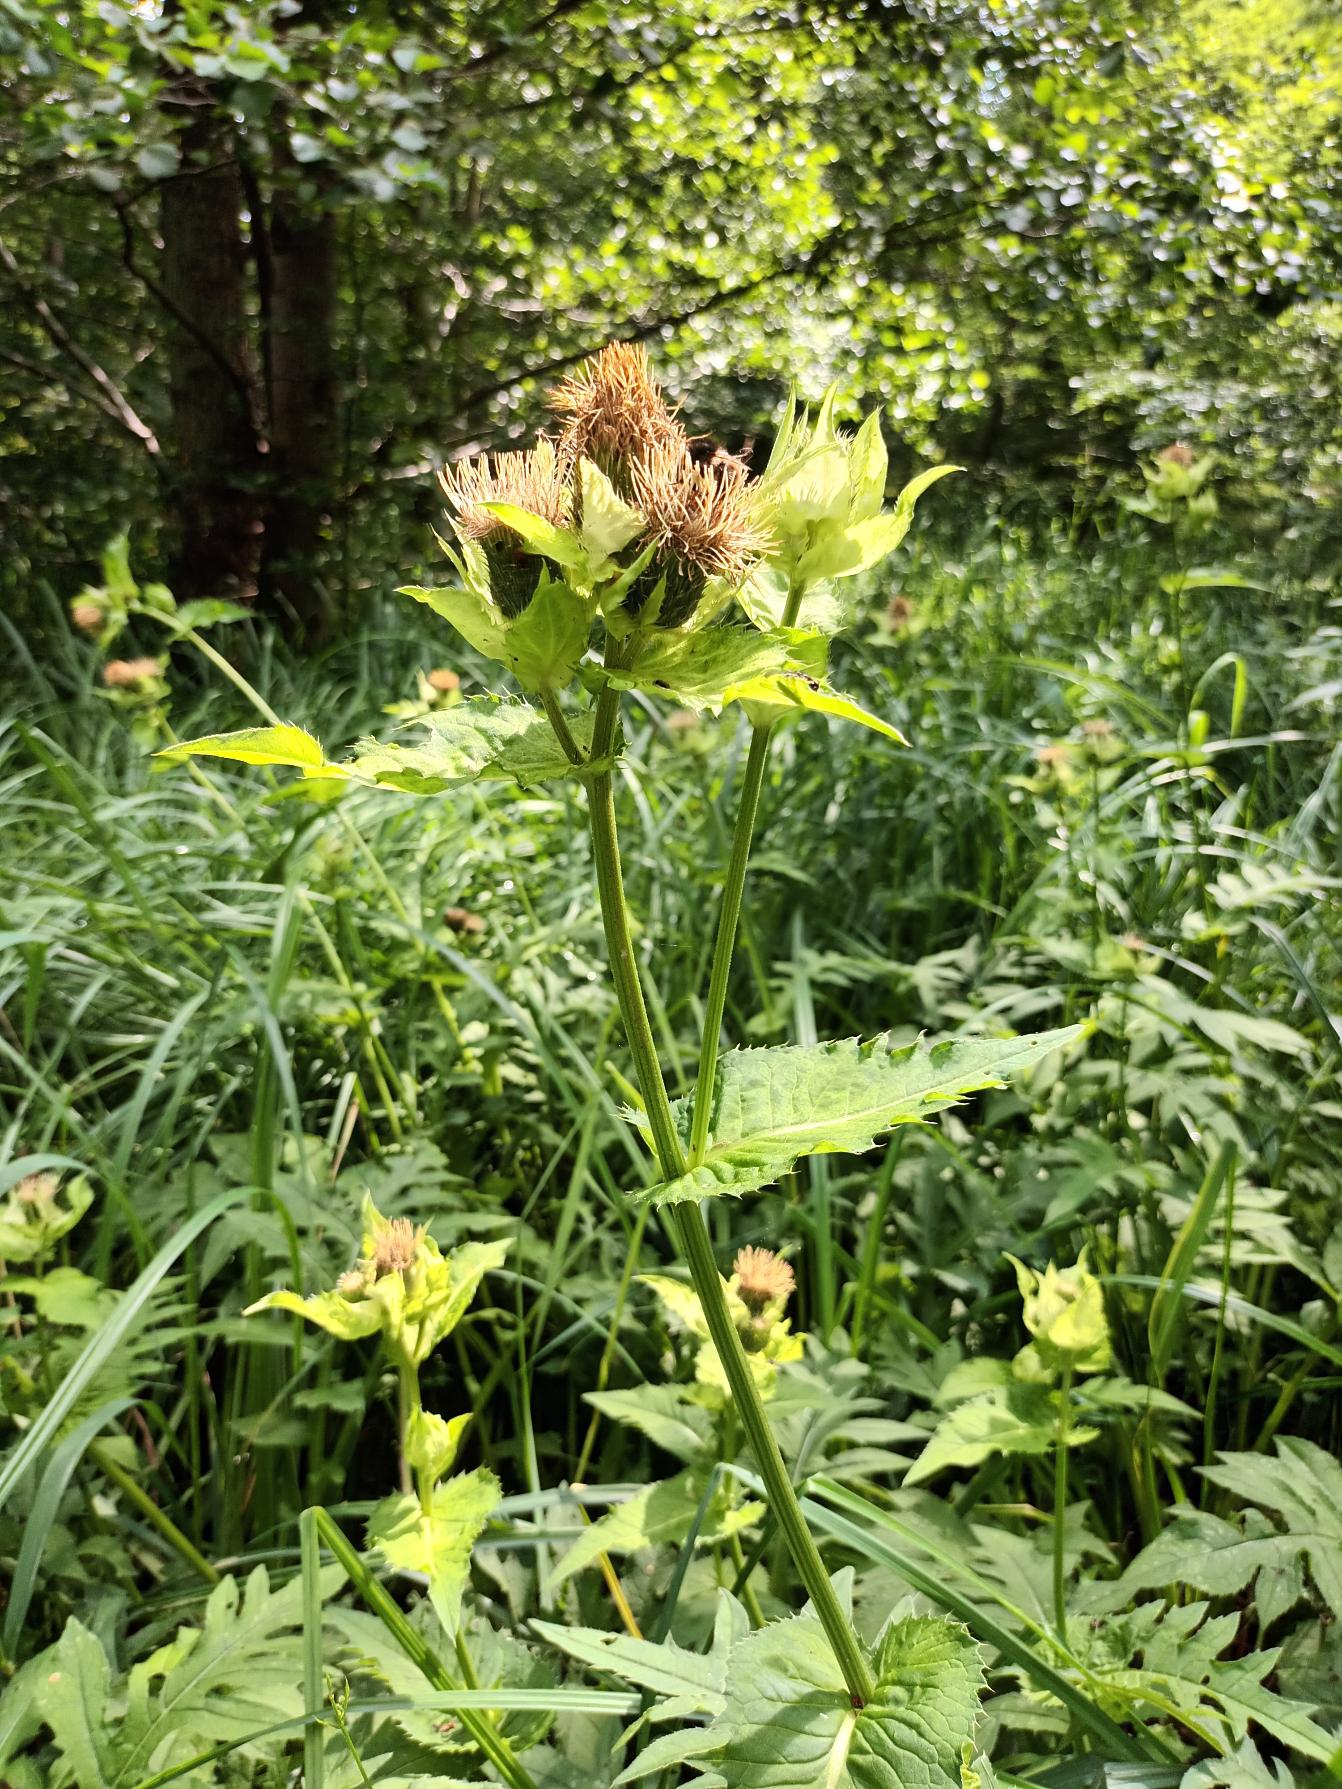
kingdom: Plantae
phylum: Tracheophyta
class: Magnoliopsida
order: Asterales
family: Asteraceae
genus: Cirsium
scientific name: Cirsium oleraceum
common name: Kål-tidsel
